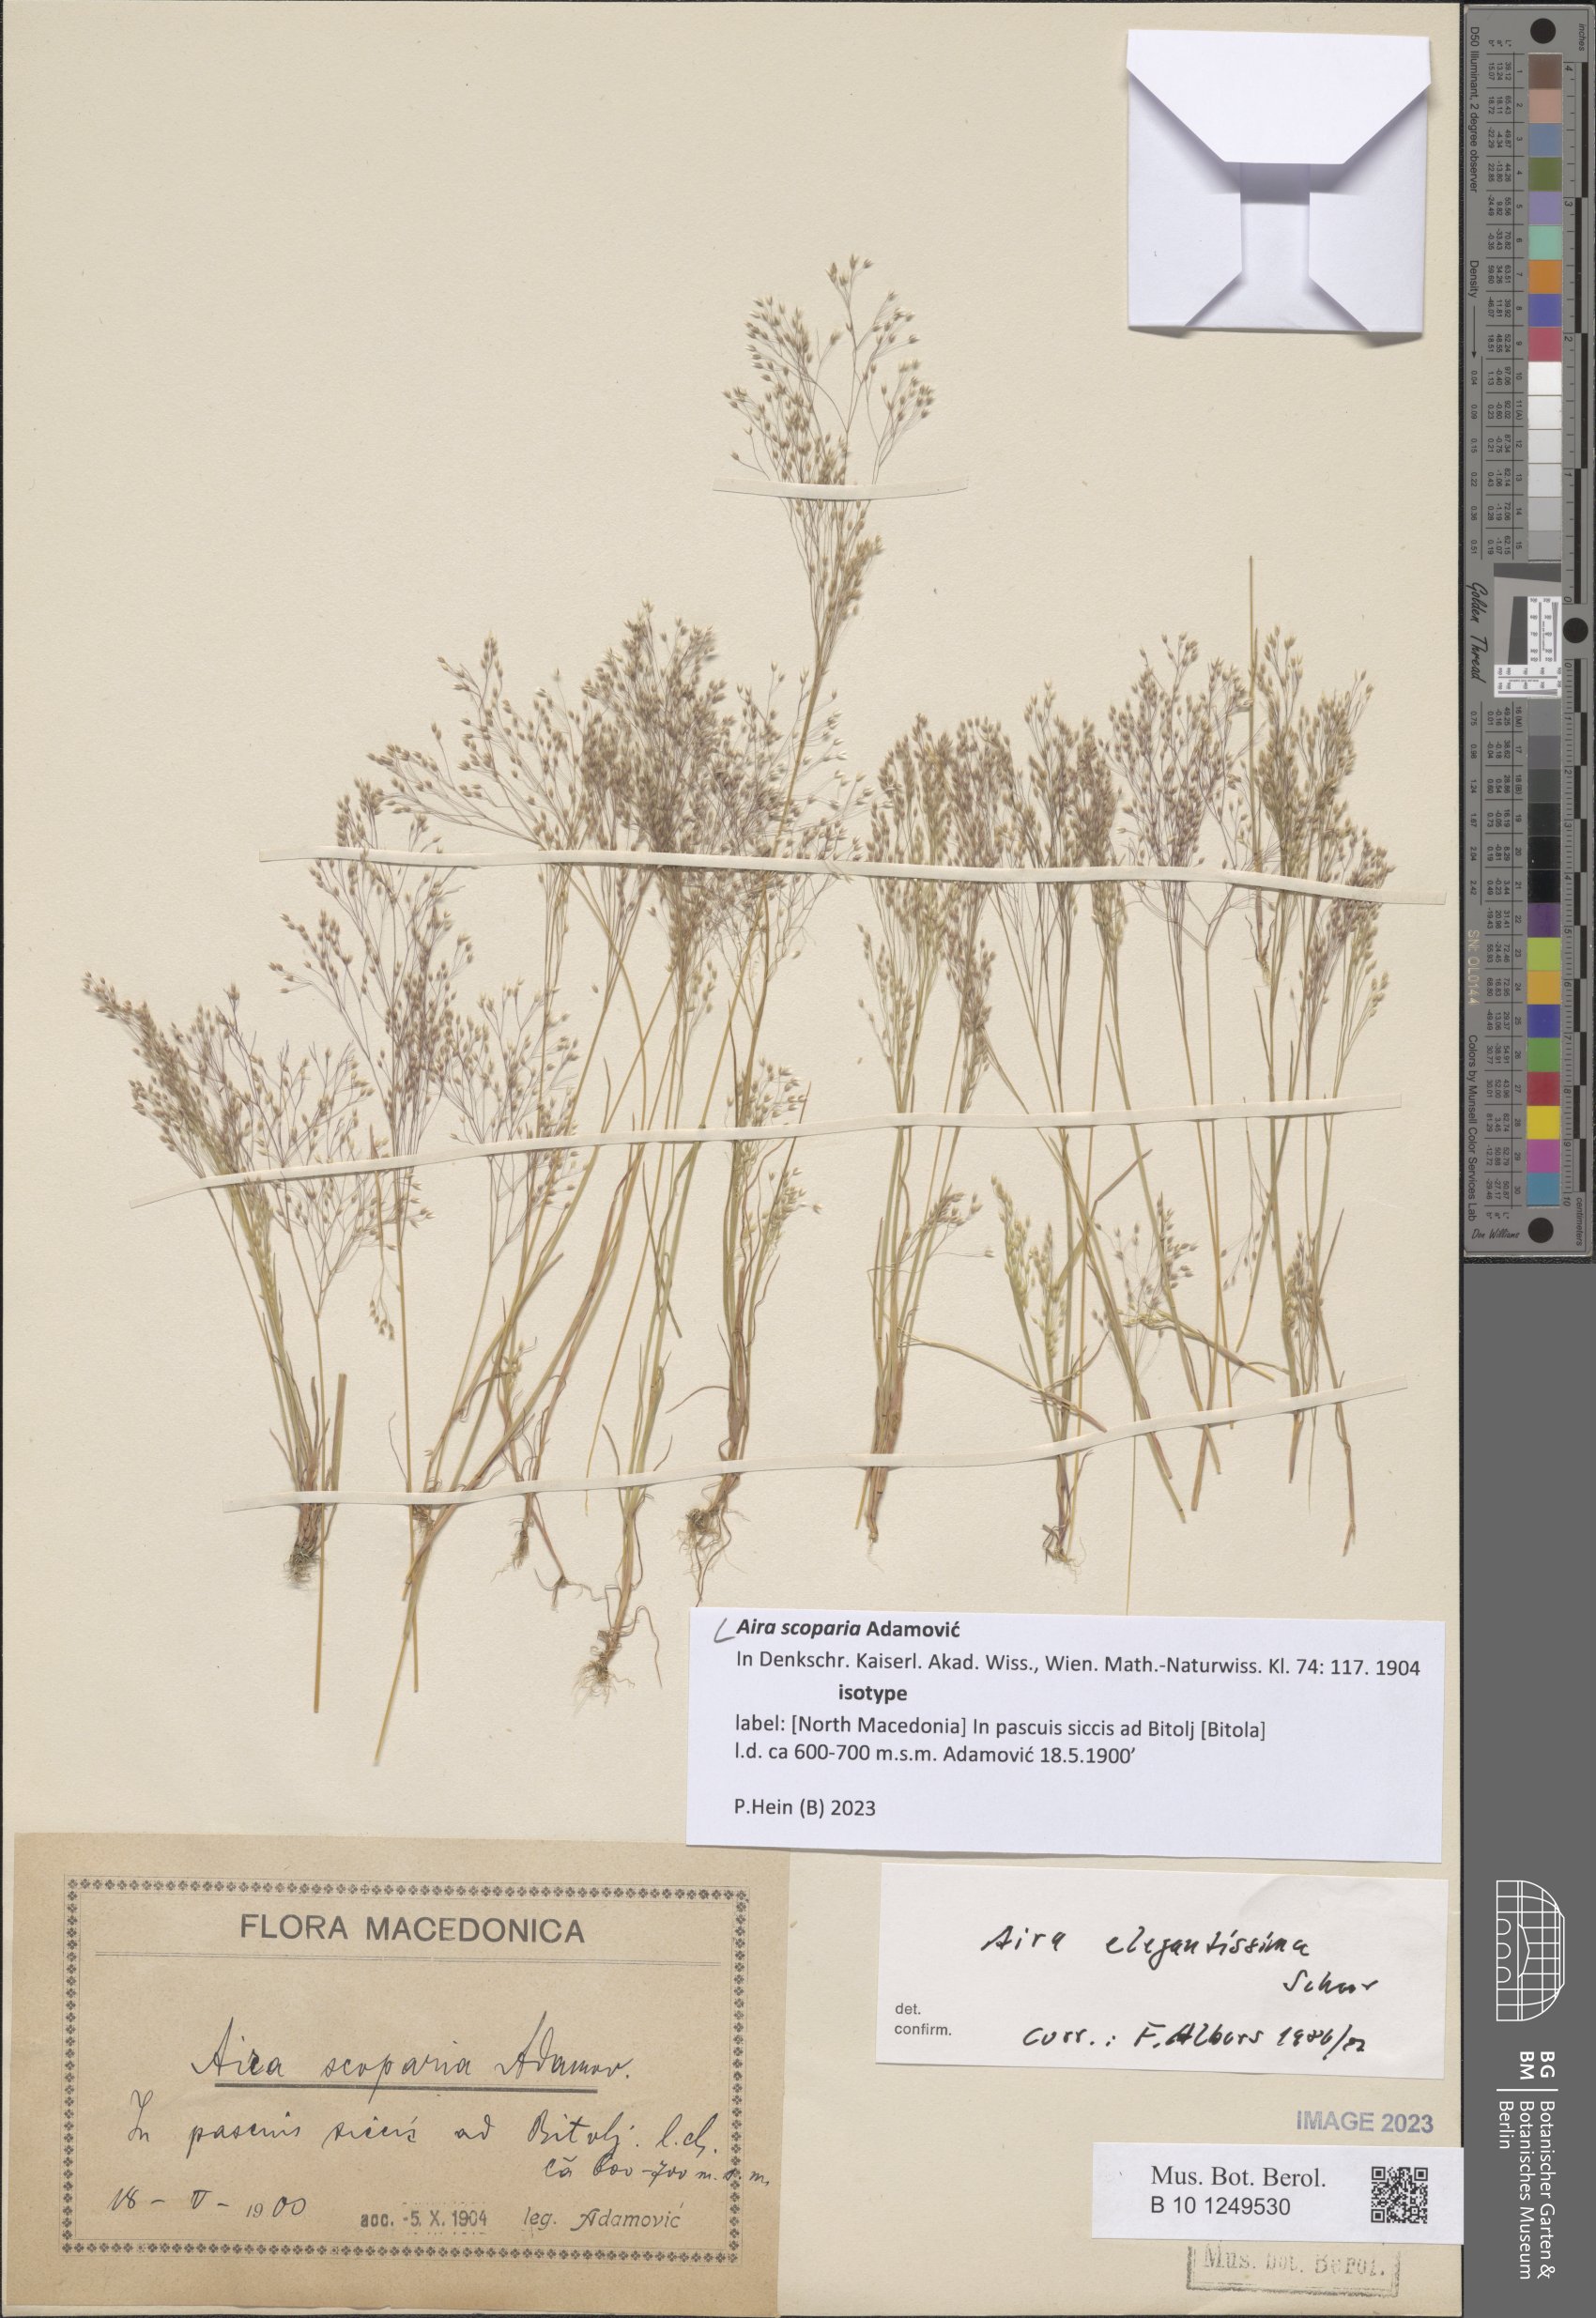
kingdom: Plantae
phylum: Tracheophyta
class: Liliopsida
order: Poales
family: Poaceae
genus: Aira
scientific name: Aira scoparia
